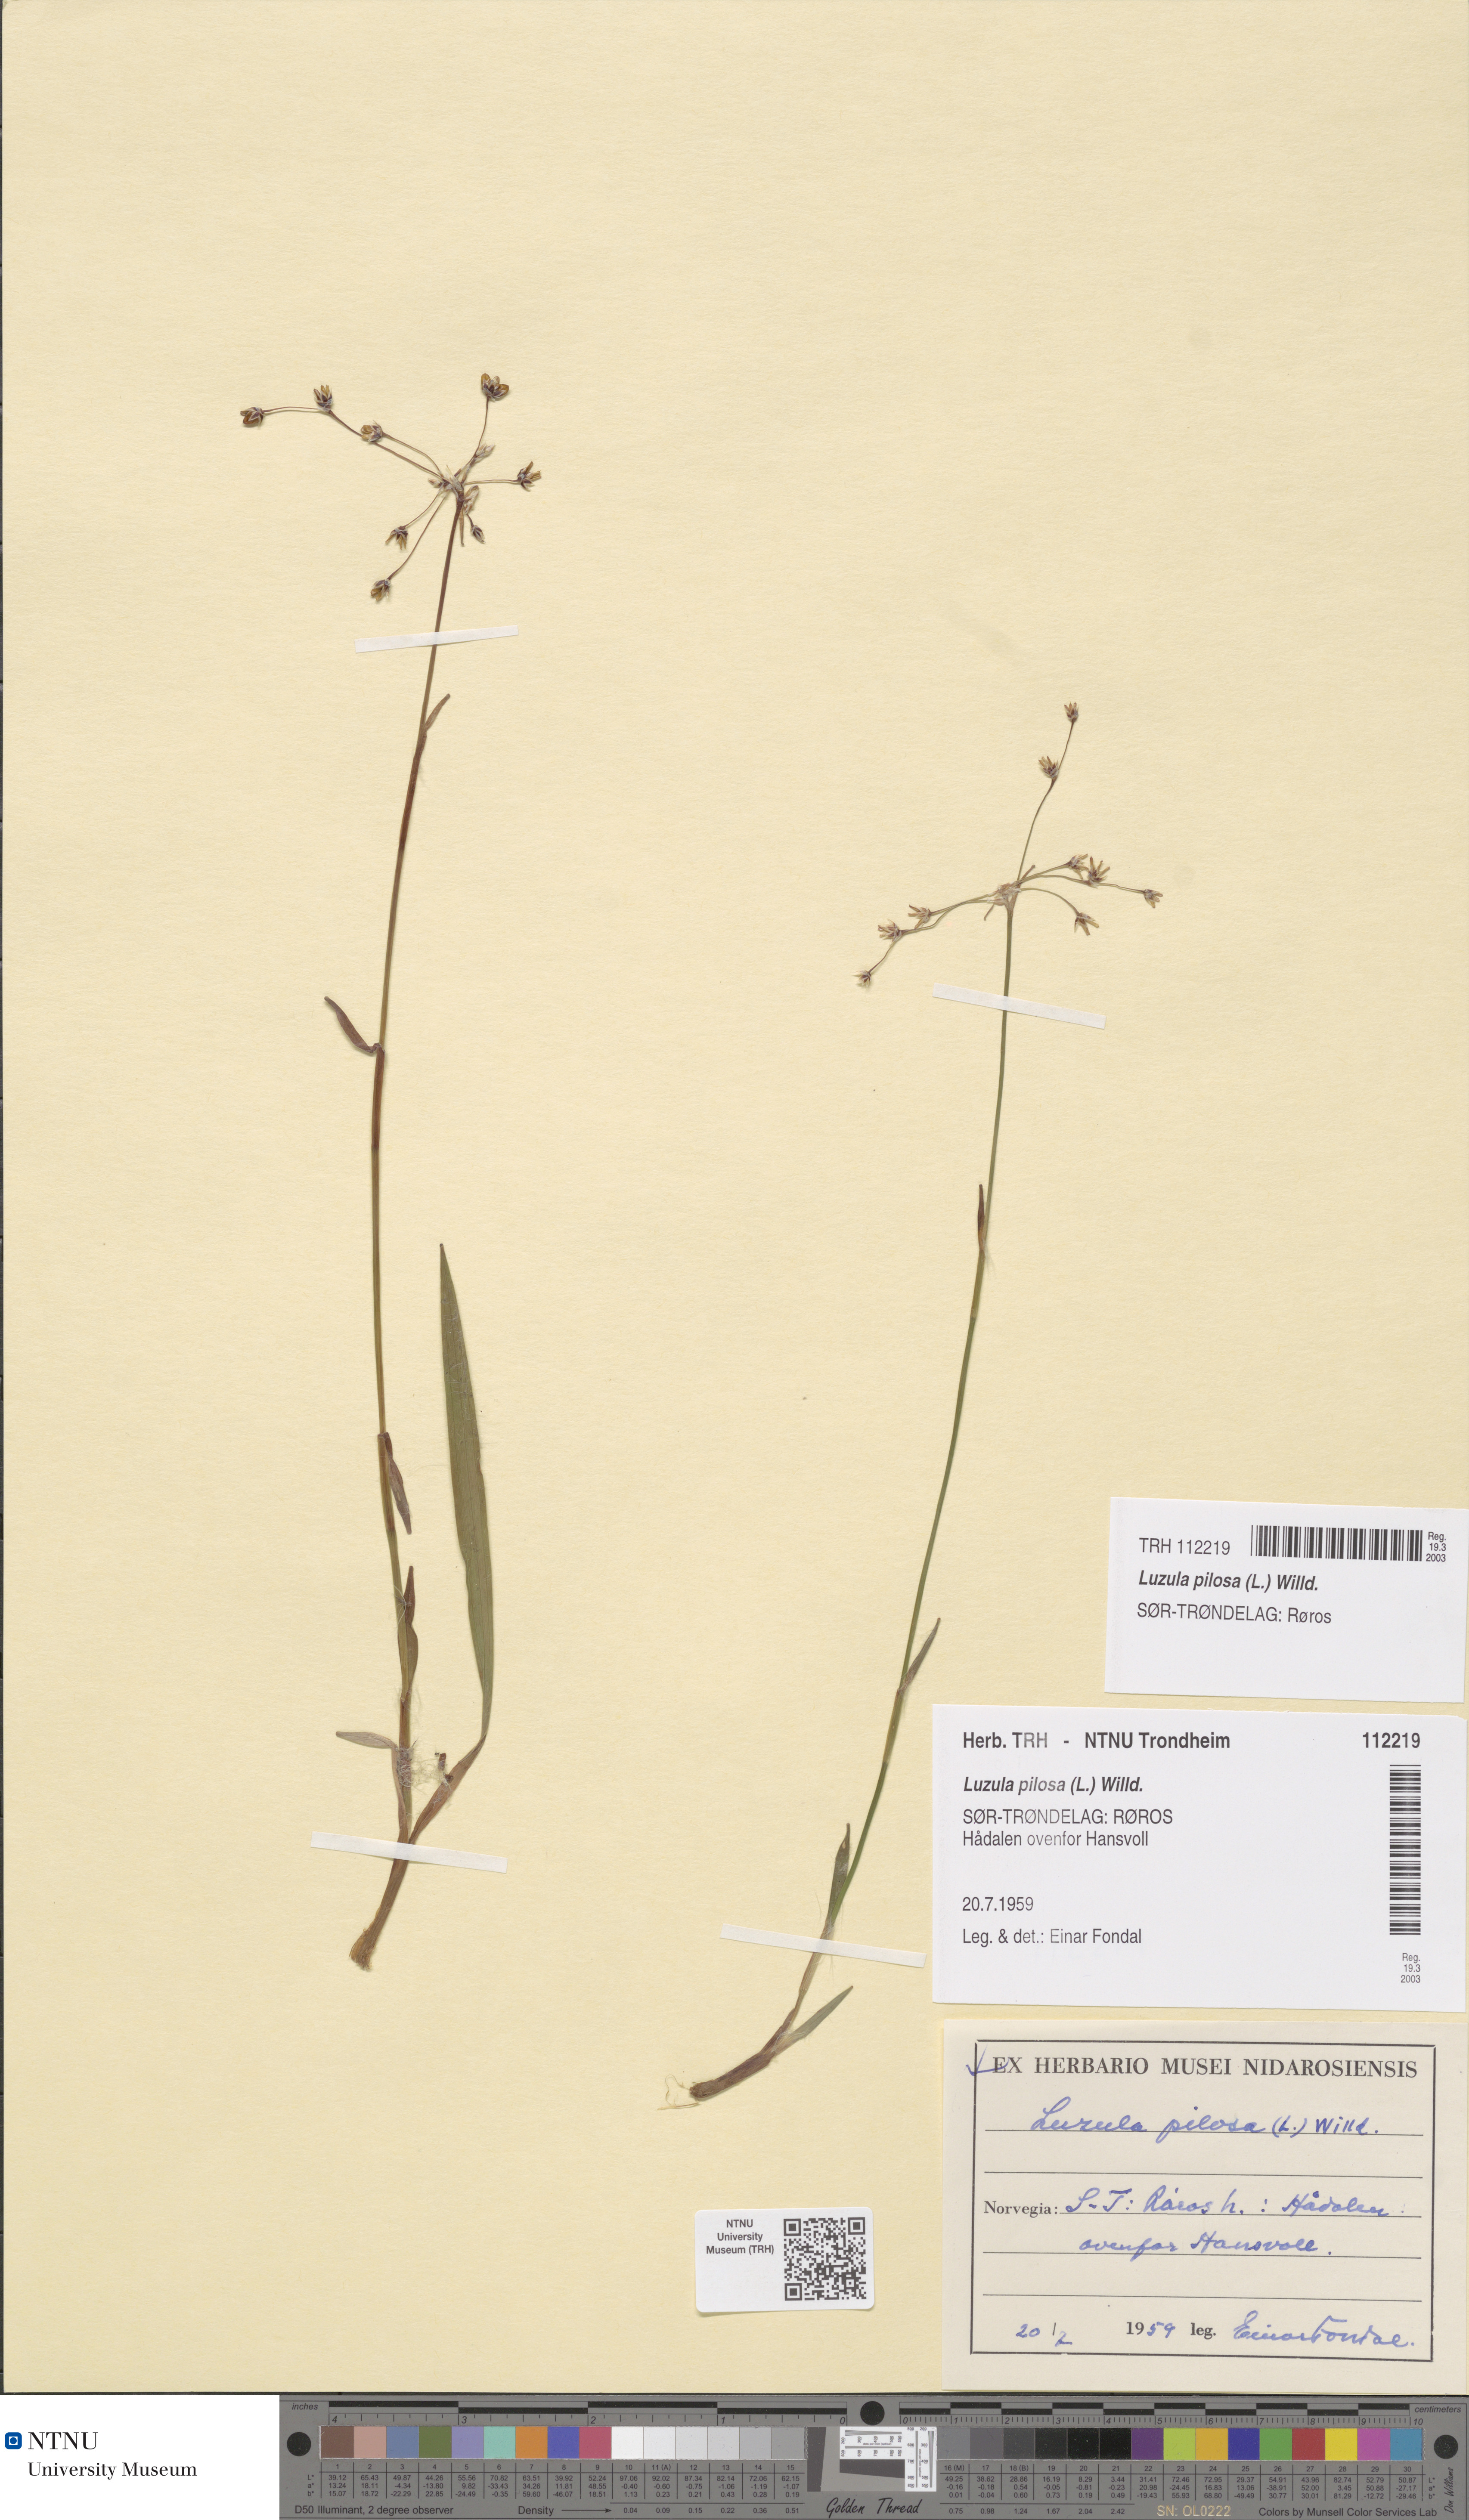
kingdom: Plantae
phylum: Tracheophyta
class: Liliopsida
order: Poales
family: Juncaceae
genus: Luzula
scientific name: Luzula pilosa
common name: Hairy wood-rush
